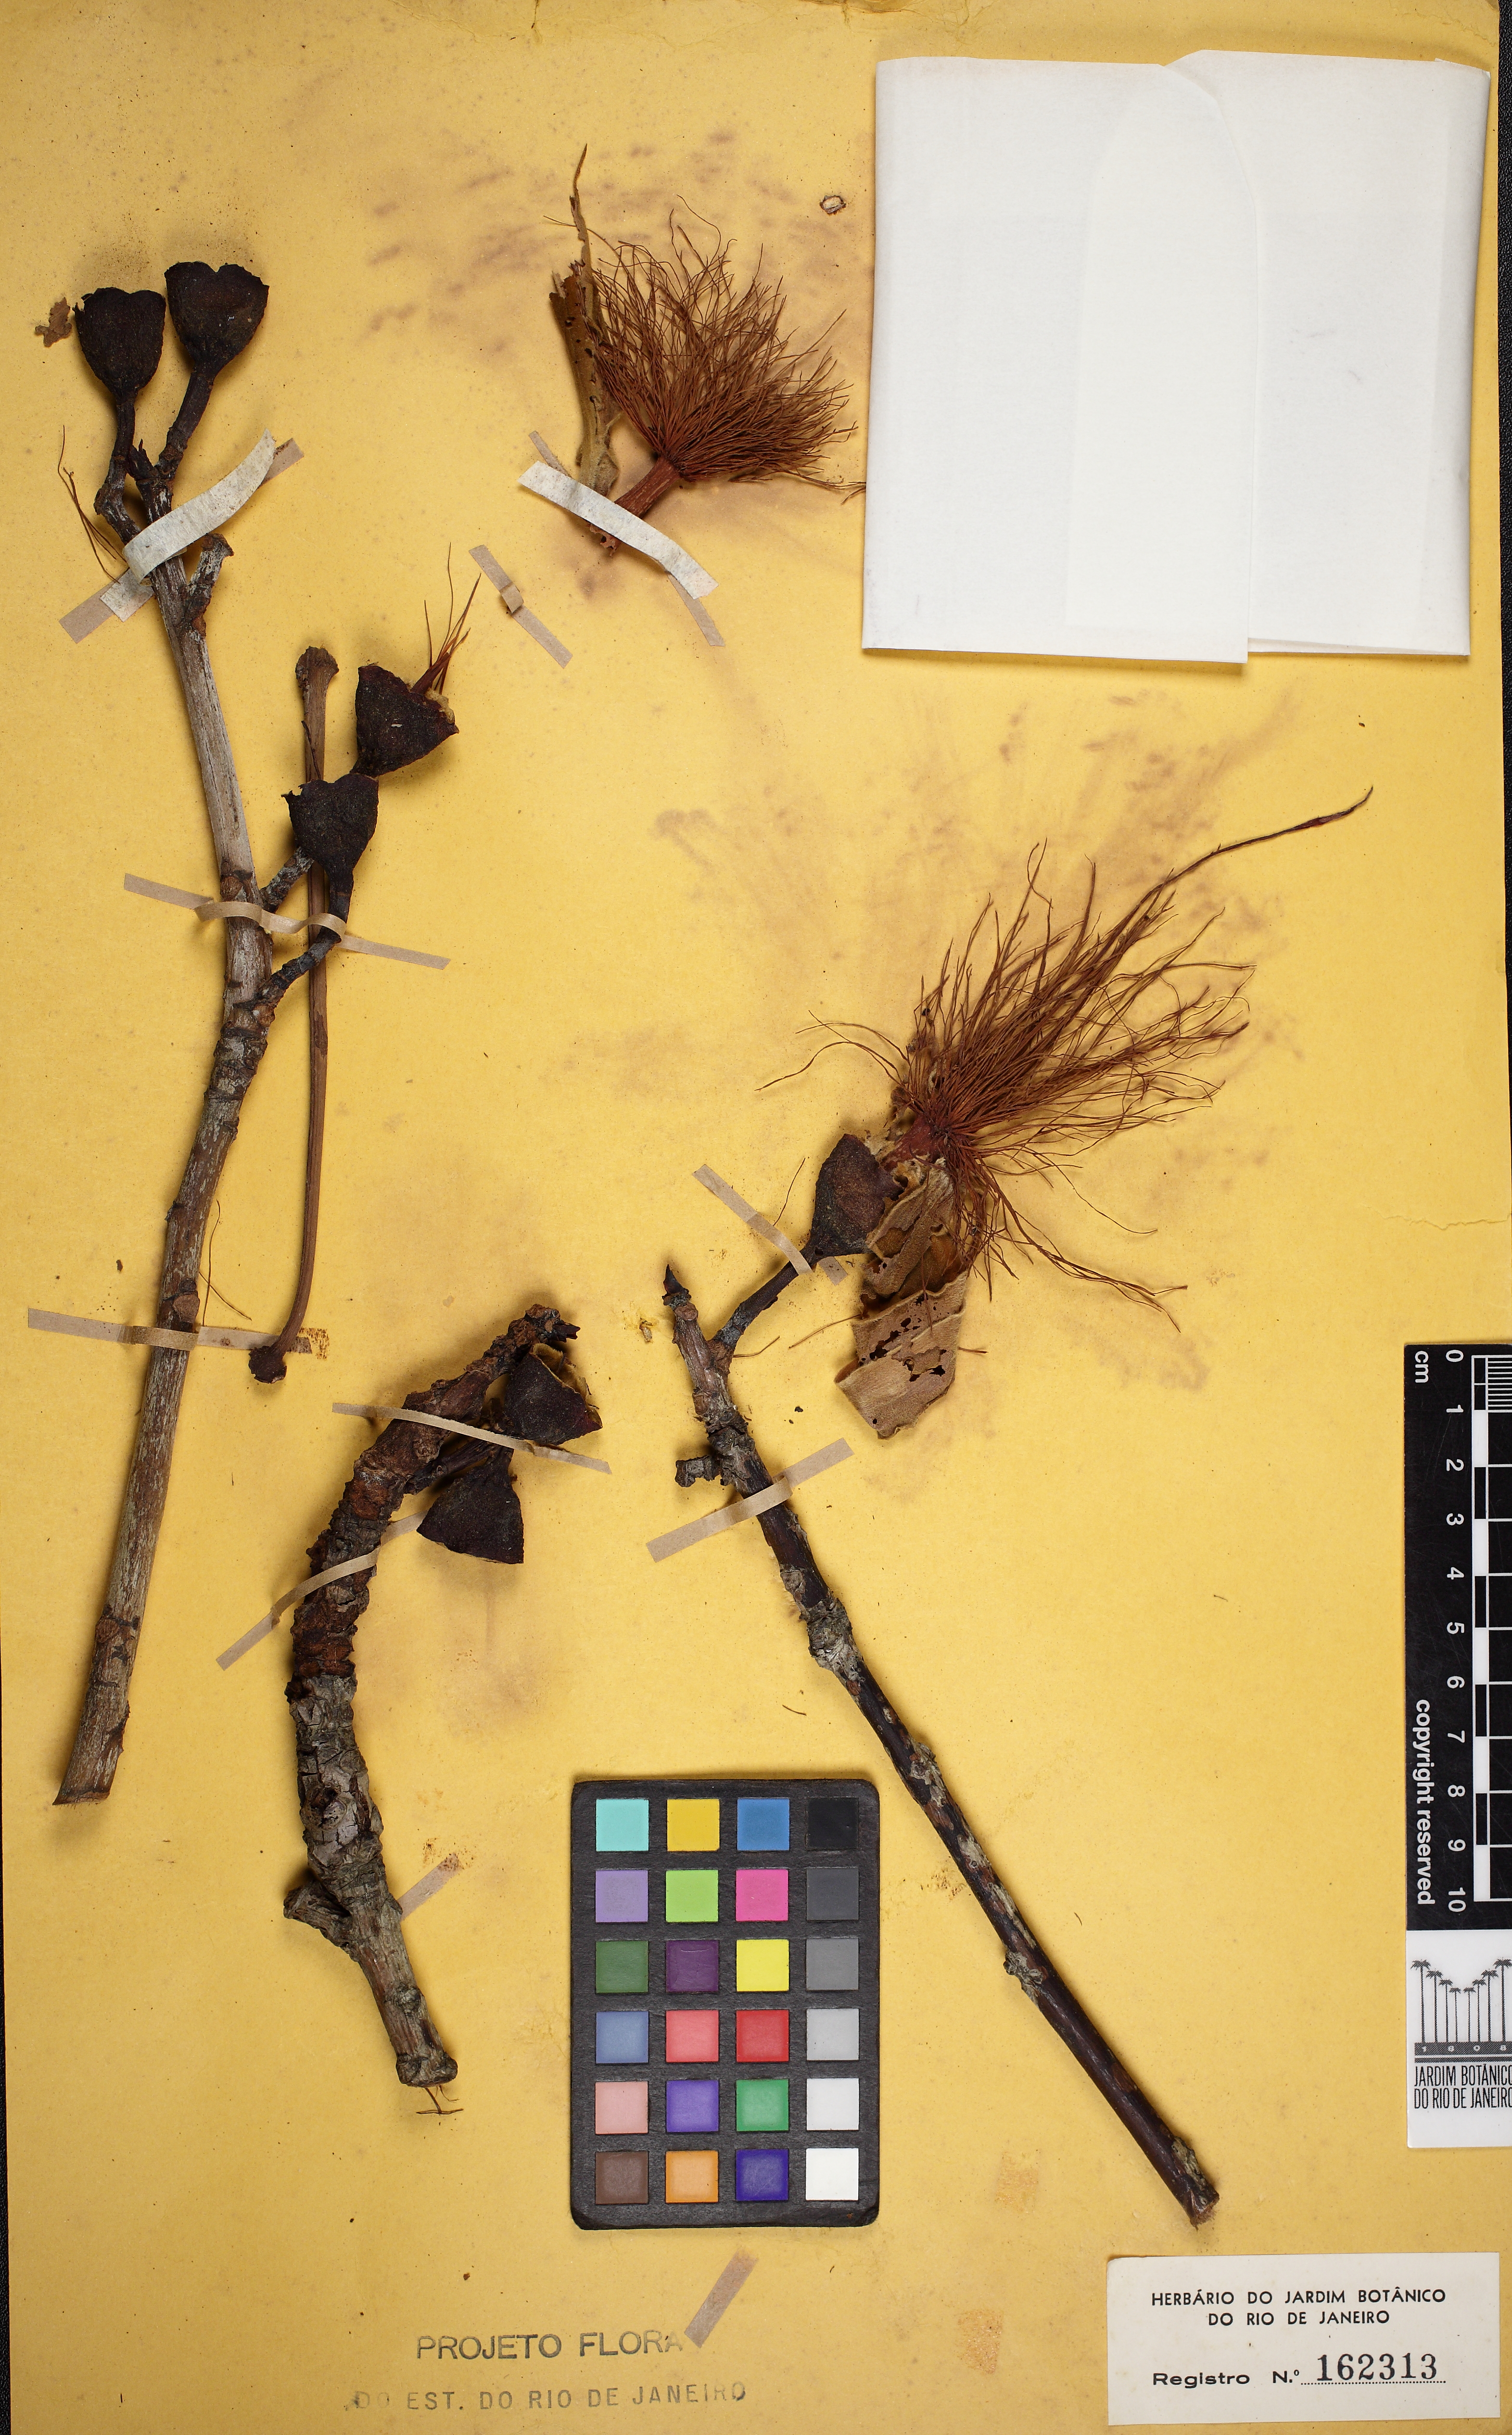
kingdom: Plantae
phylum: Tracheophyta
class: Magnoliopsida
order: Malvales
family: Malvaceae
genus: Pseudobombax
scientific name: Pseudobombax grandiflorum
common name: Brazilian shaving-brush-tree
